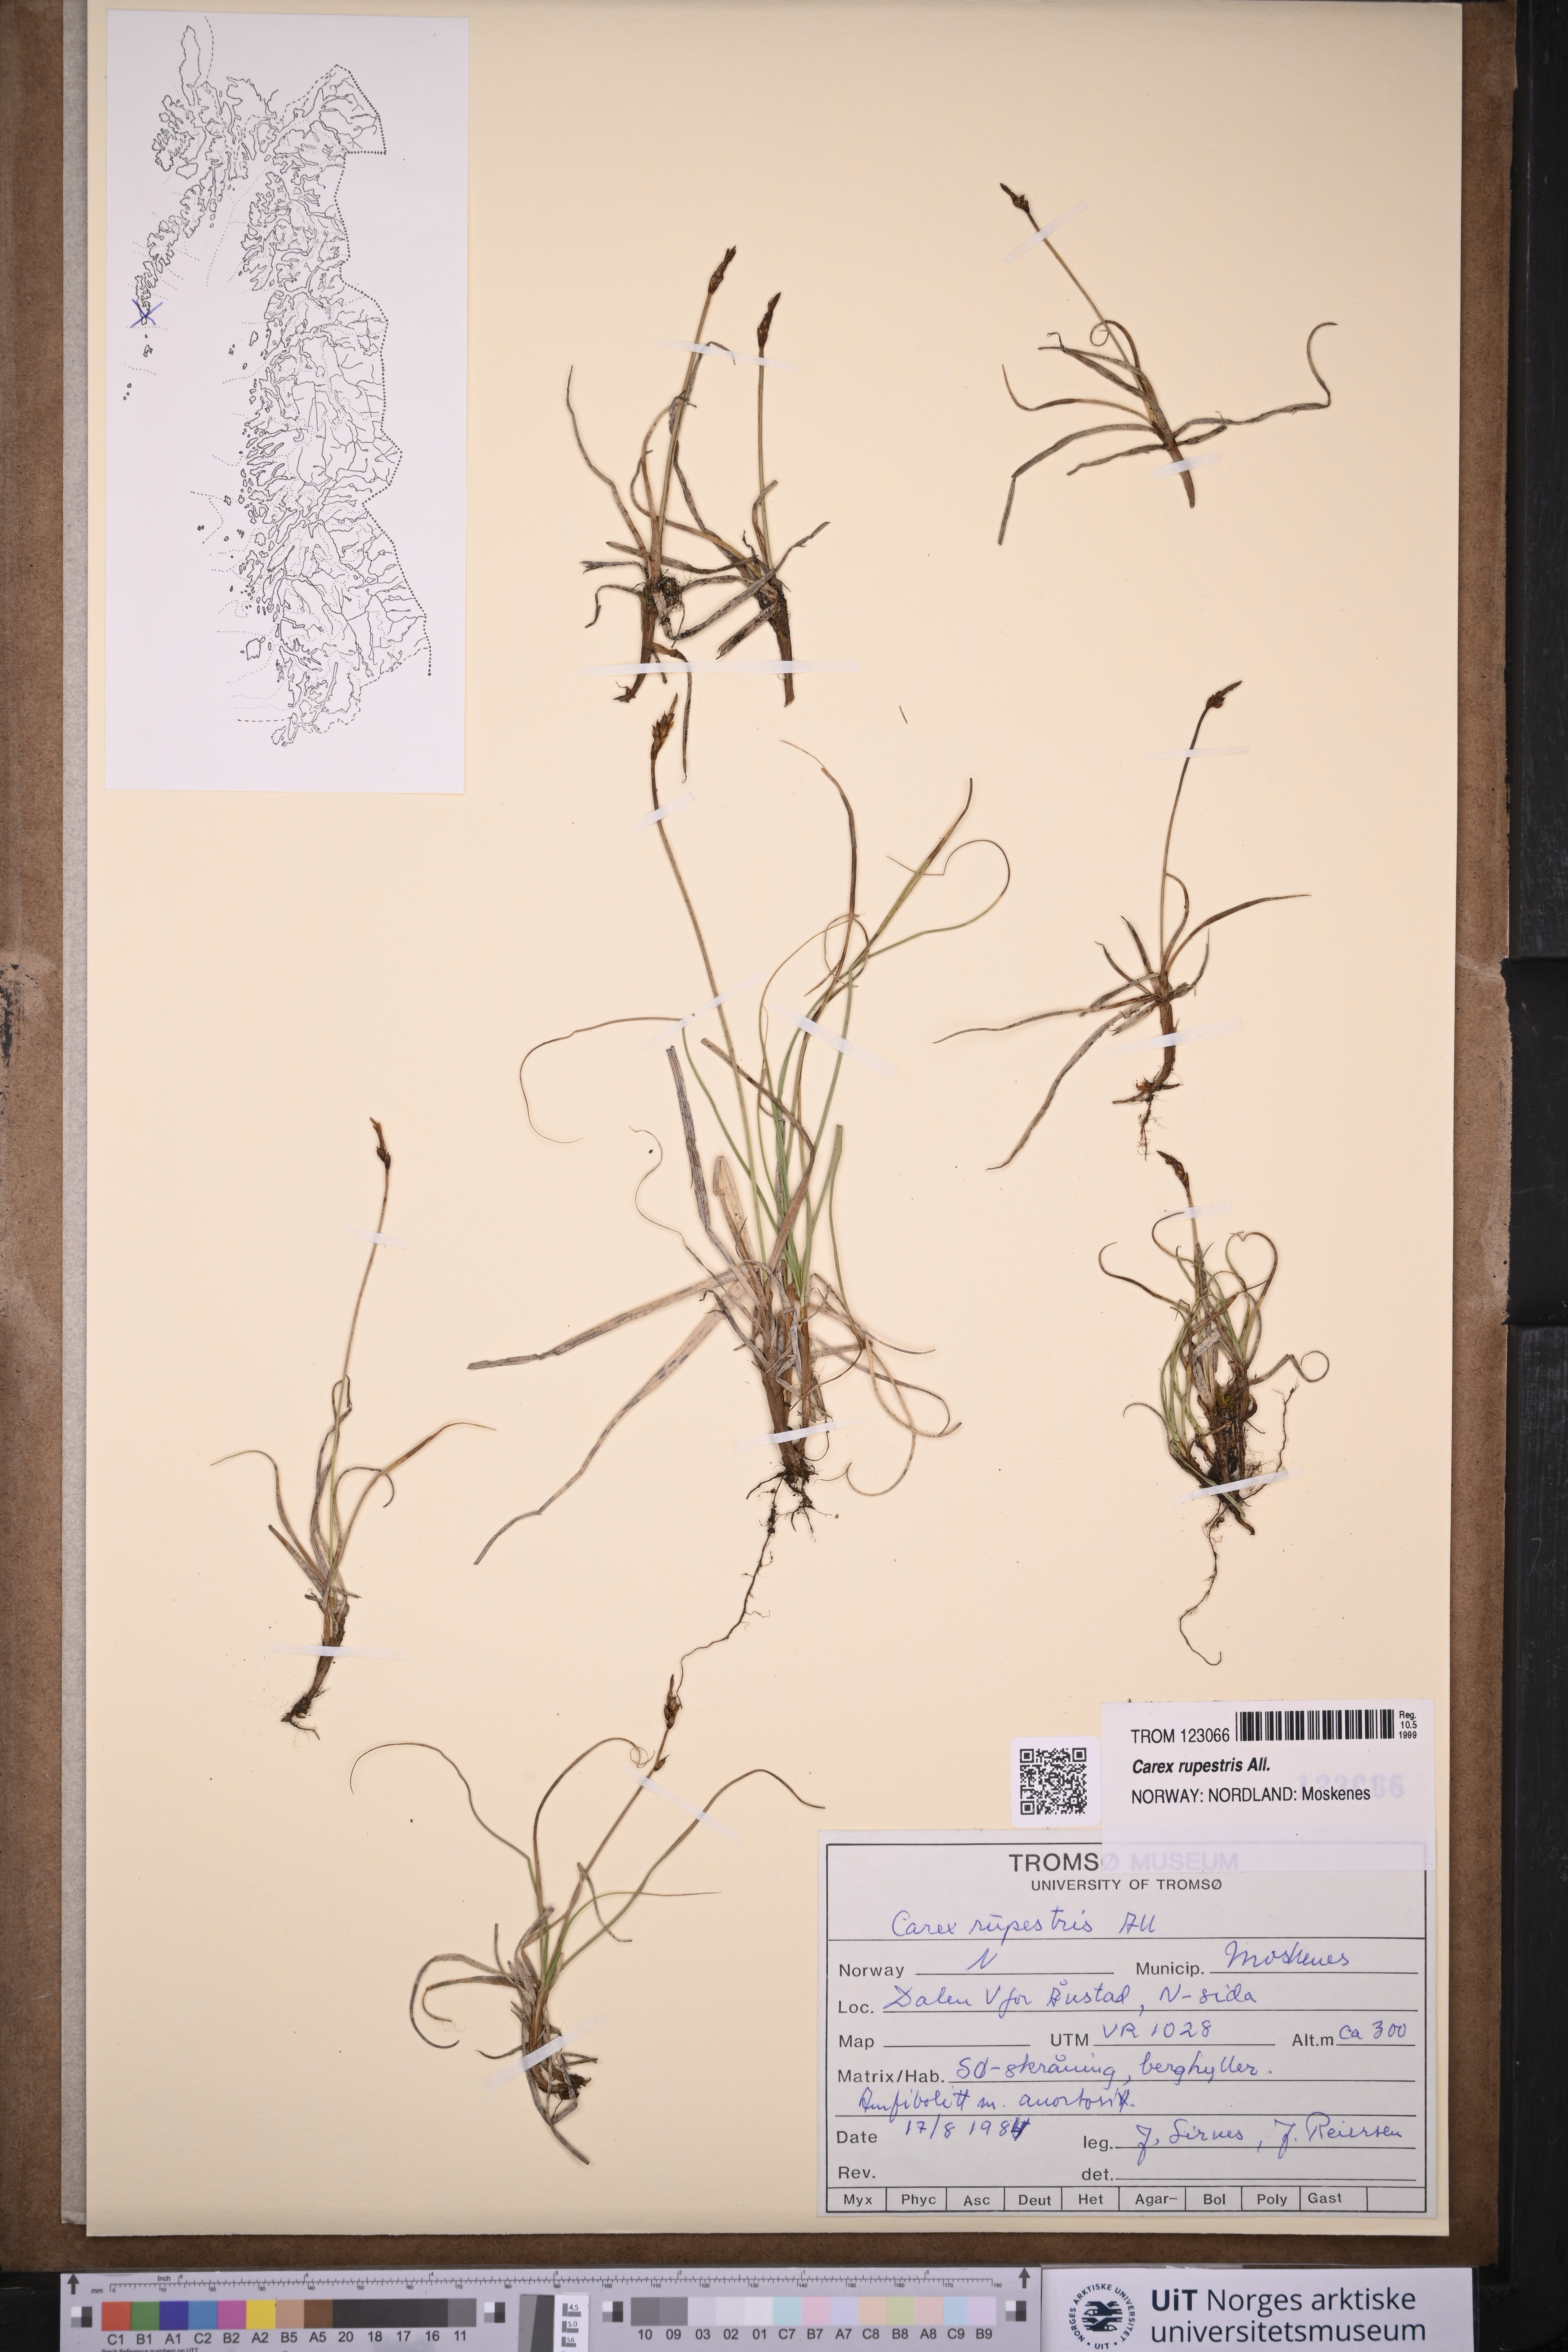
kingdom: Plantae
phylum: Tracheophyta
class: Liliopsida
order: Poales
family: Cyperaceae
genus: Carex
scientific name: Carex rupestris
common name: Rock sedge
